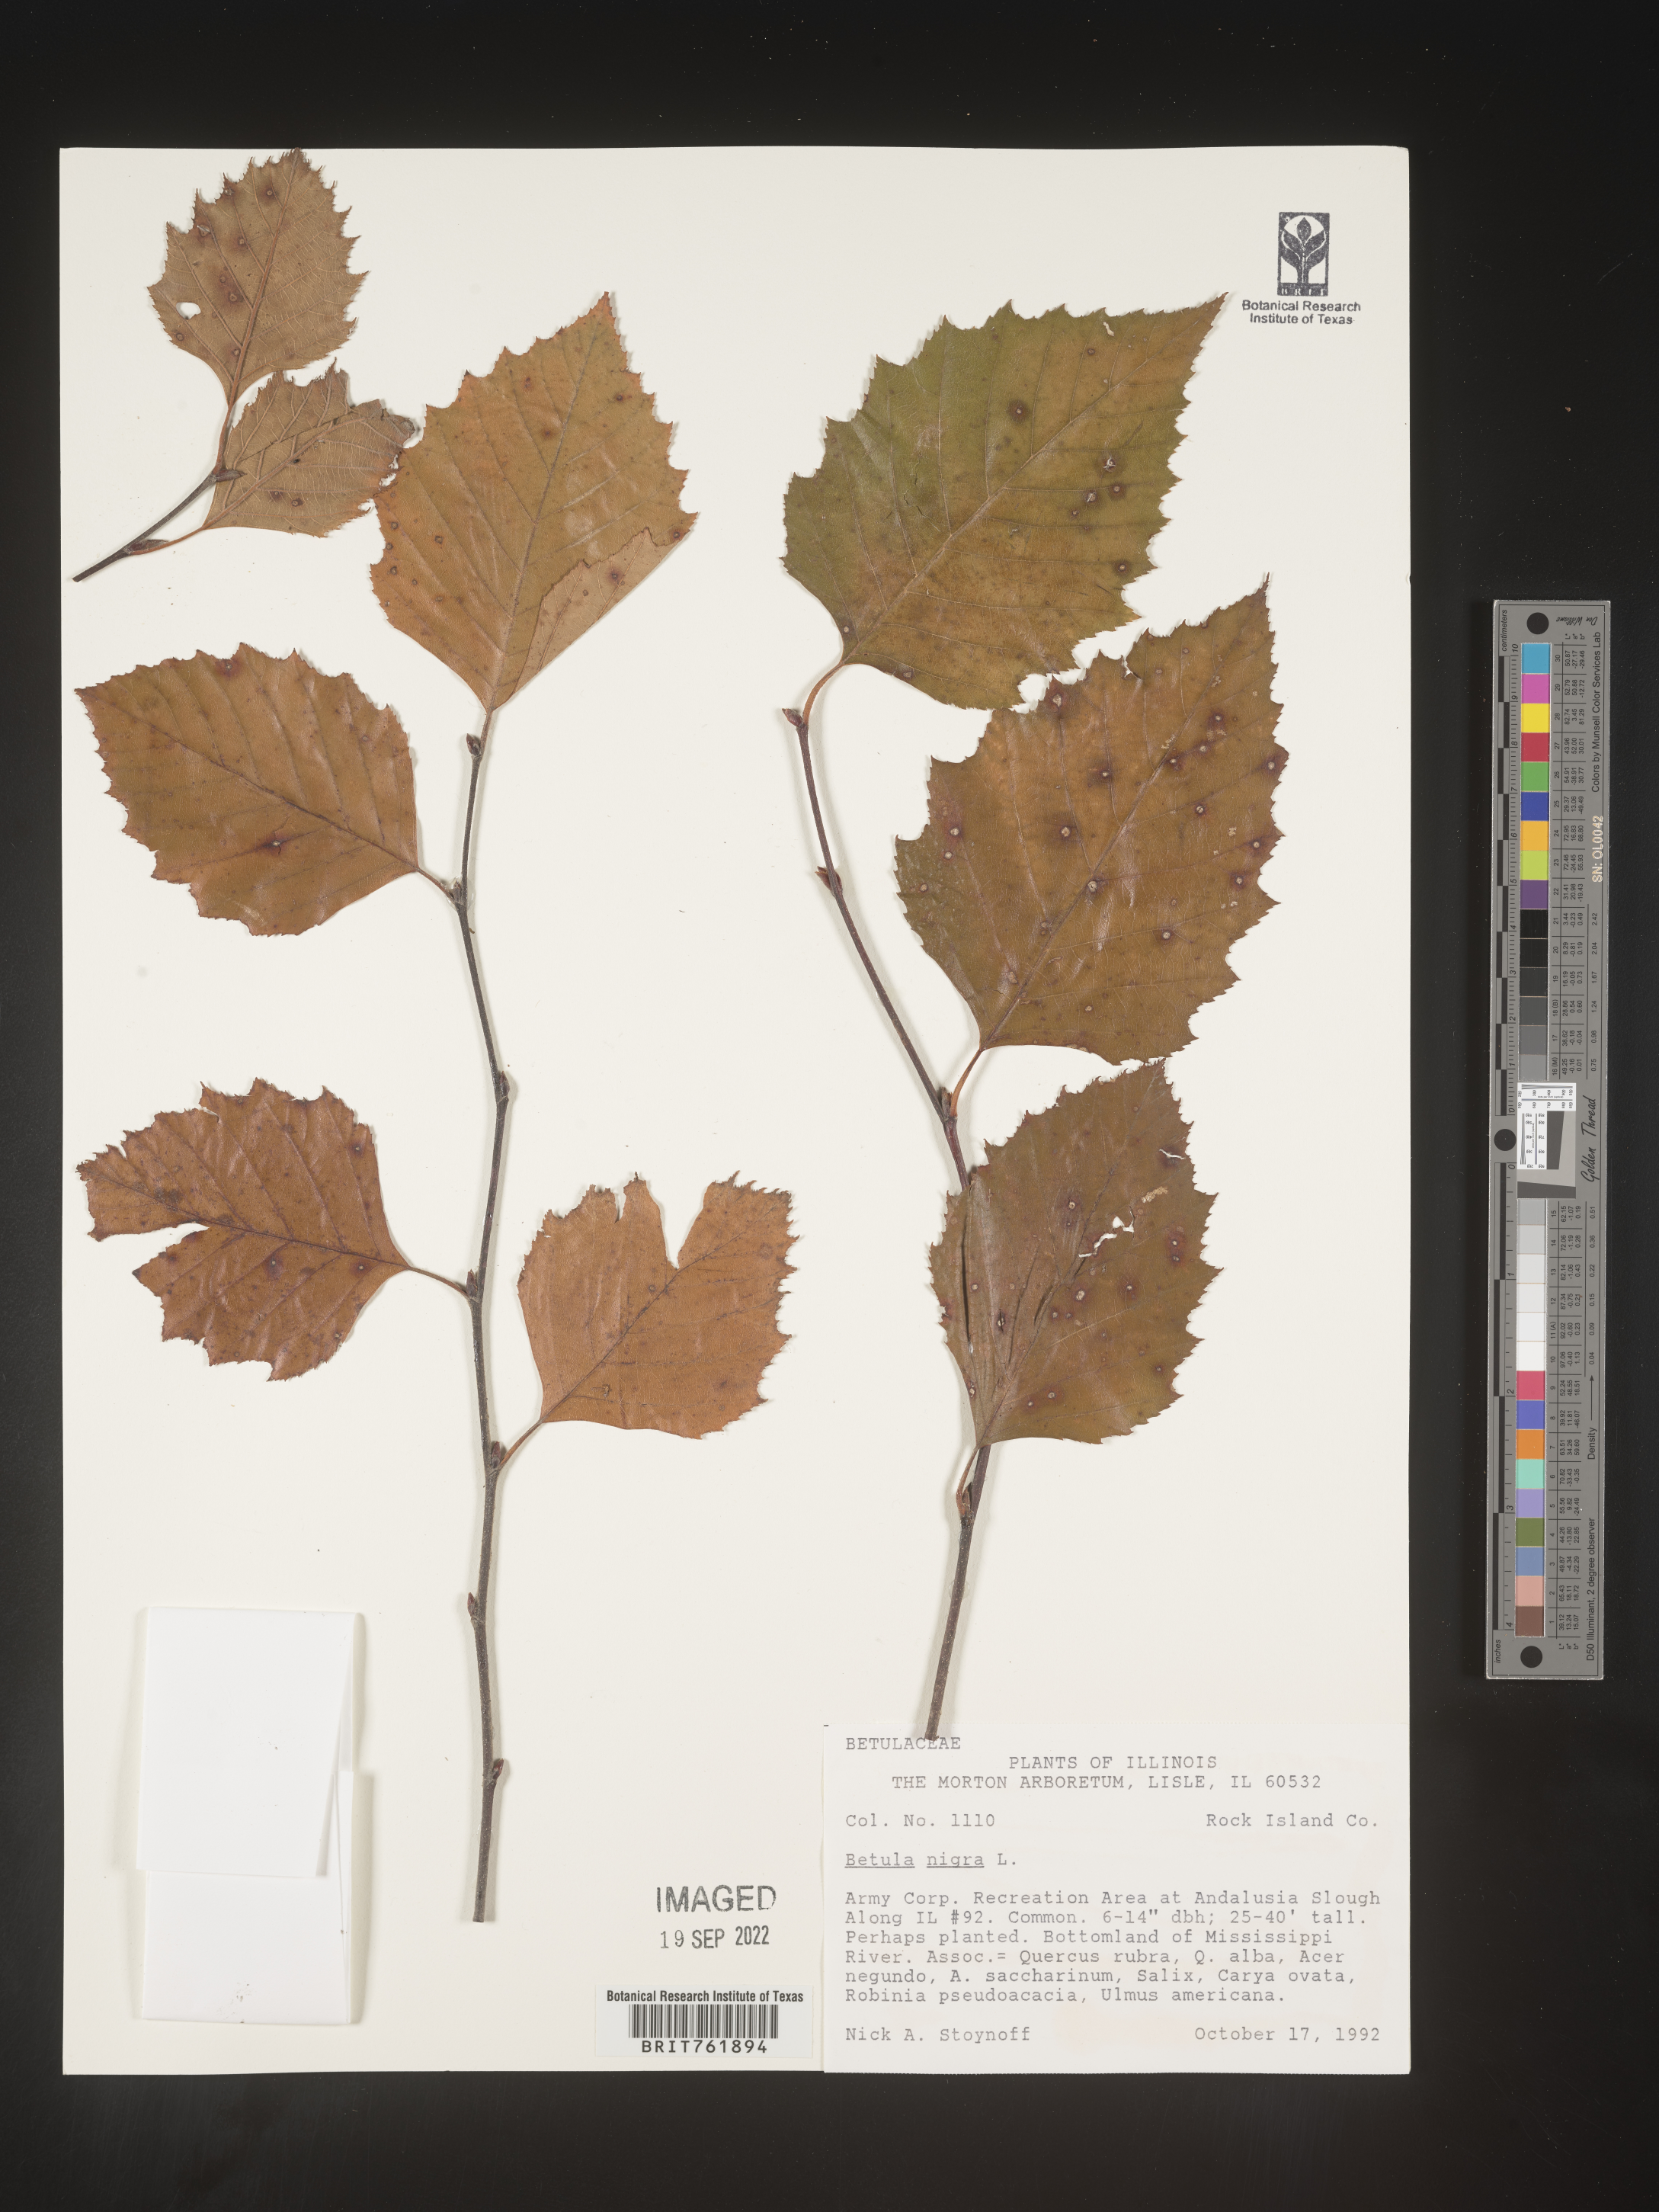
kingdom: Plantae
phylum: Tracheophyta
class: Magnoliopsida
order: Fagales
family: Betulaceae
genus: Betula
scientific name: Betula nigra
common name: Black birch
